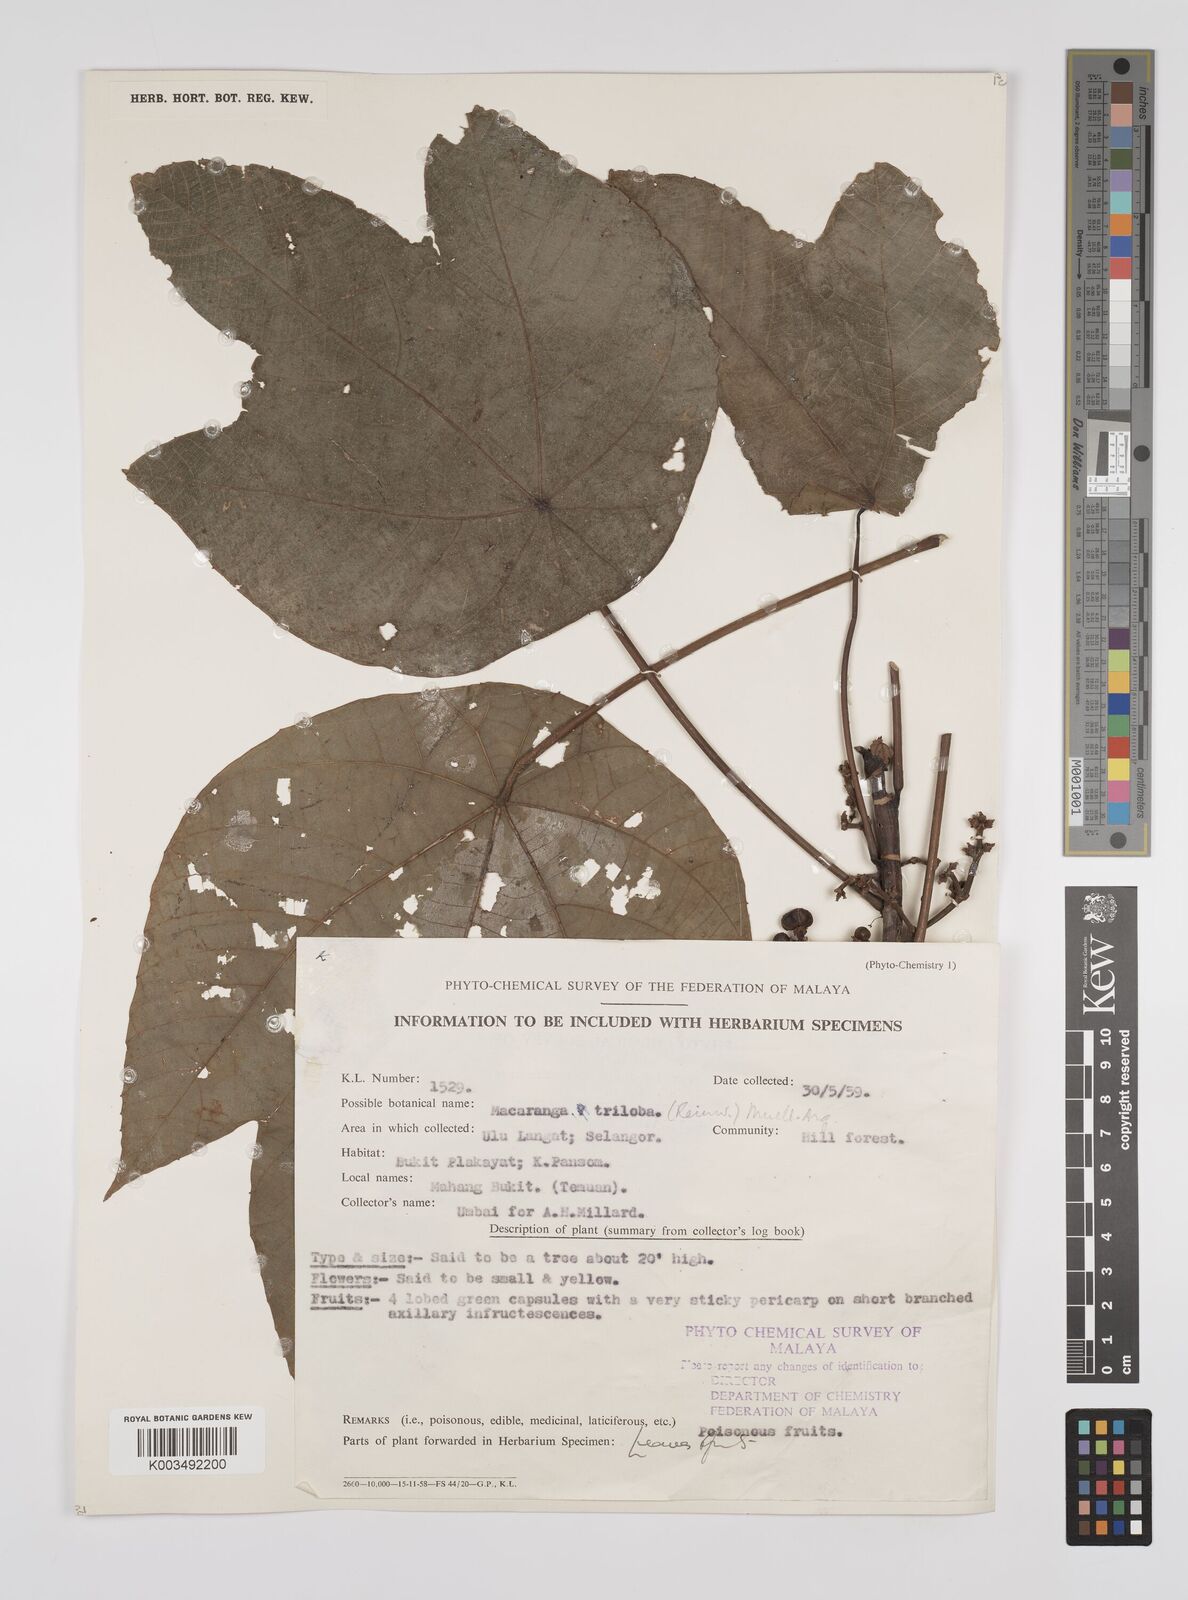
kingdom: Plantae
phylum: Tracheophyta
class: Magnoliopsida
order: Malpighiales
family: Euphorbiaceae
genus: Macaranga
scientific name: Macaranga triloba
